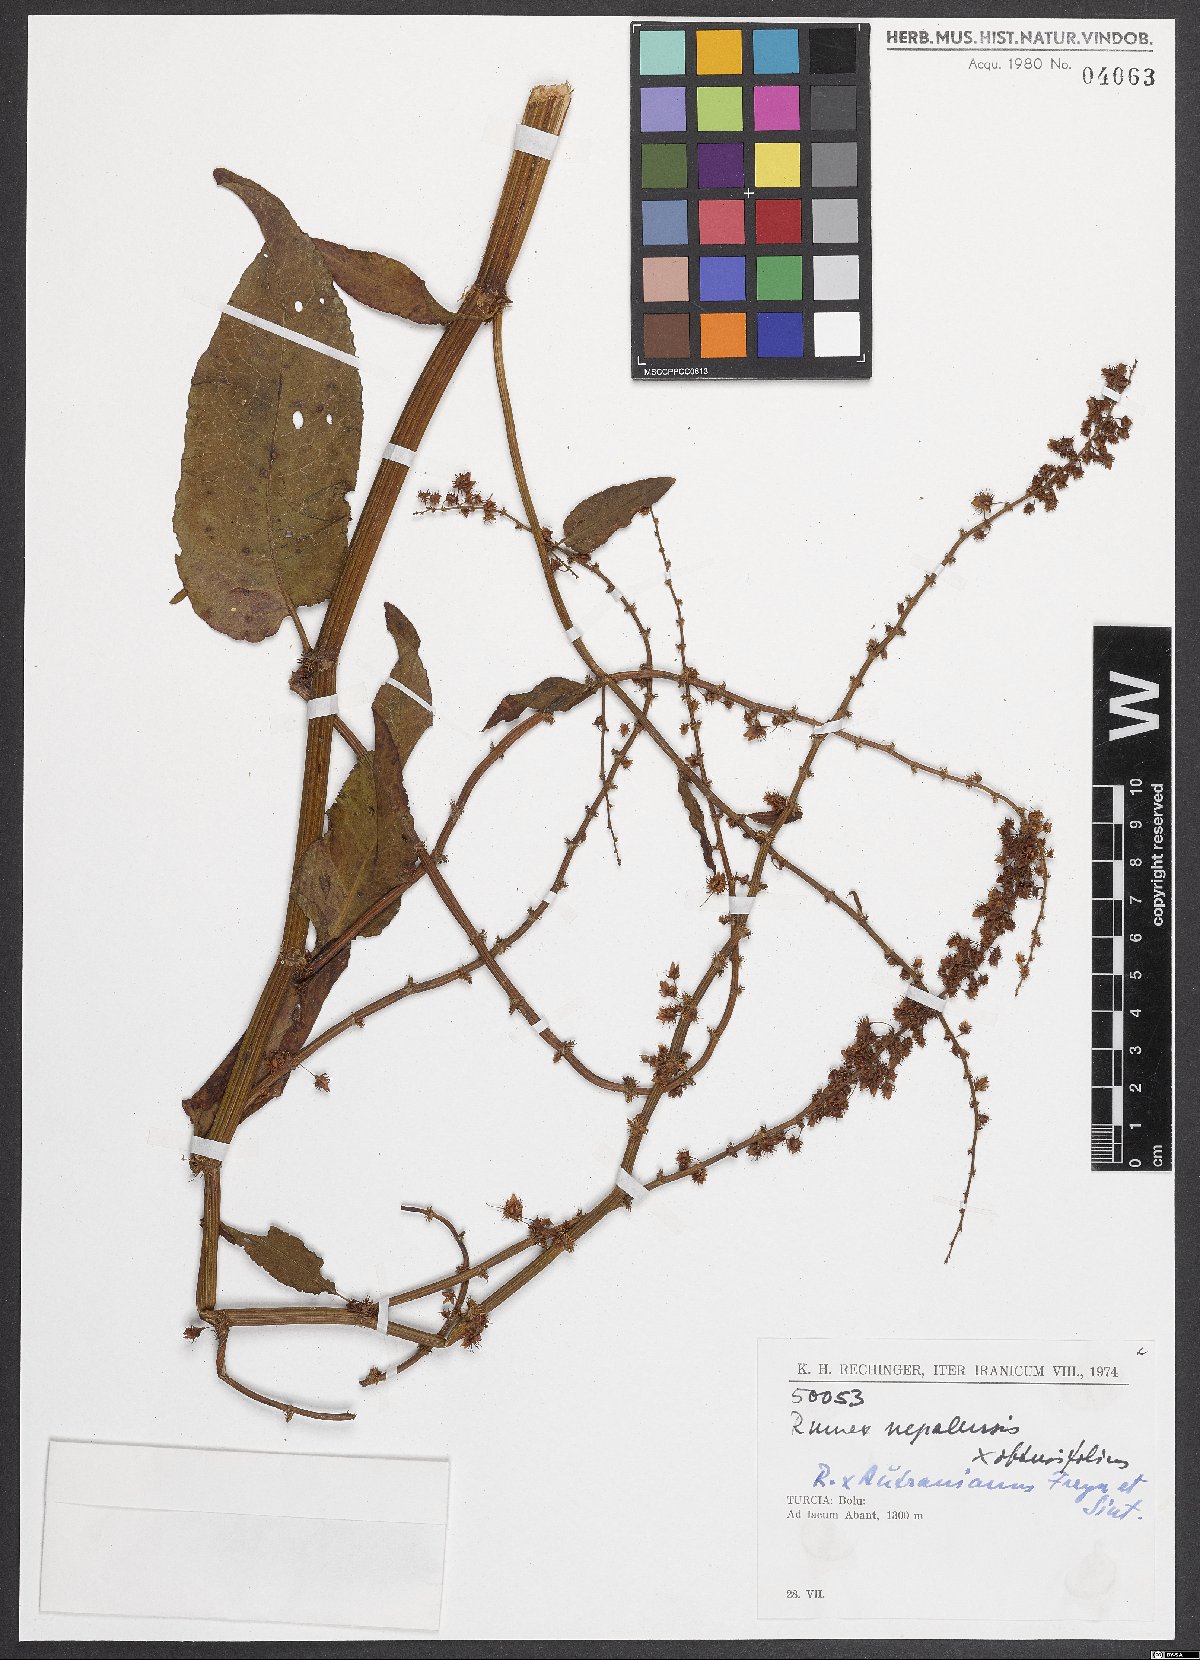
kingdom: Plantae
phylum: Tracheophyta
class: Magnoliopsida
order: Caryophyllales
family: Polygonaceae
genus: Rumex
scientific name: Rumex
